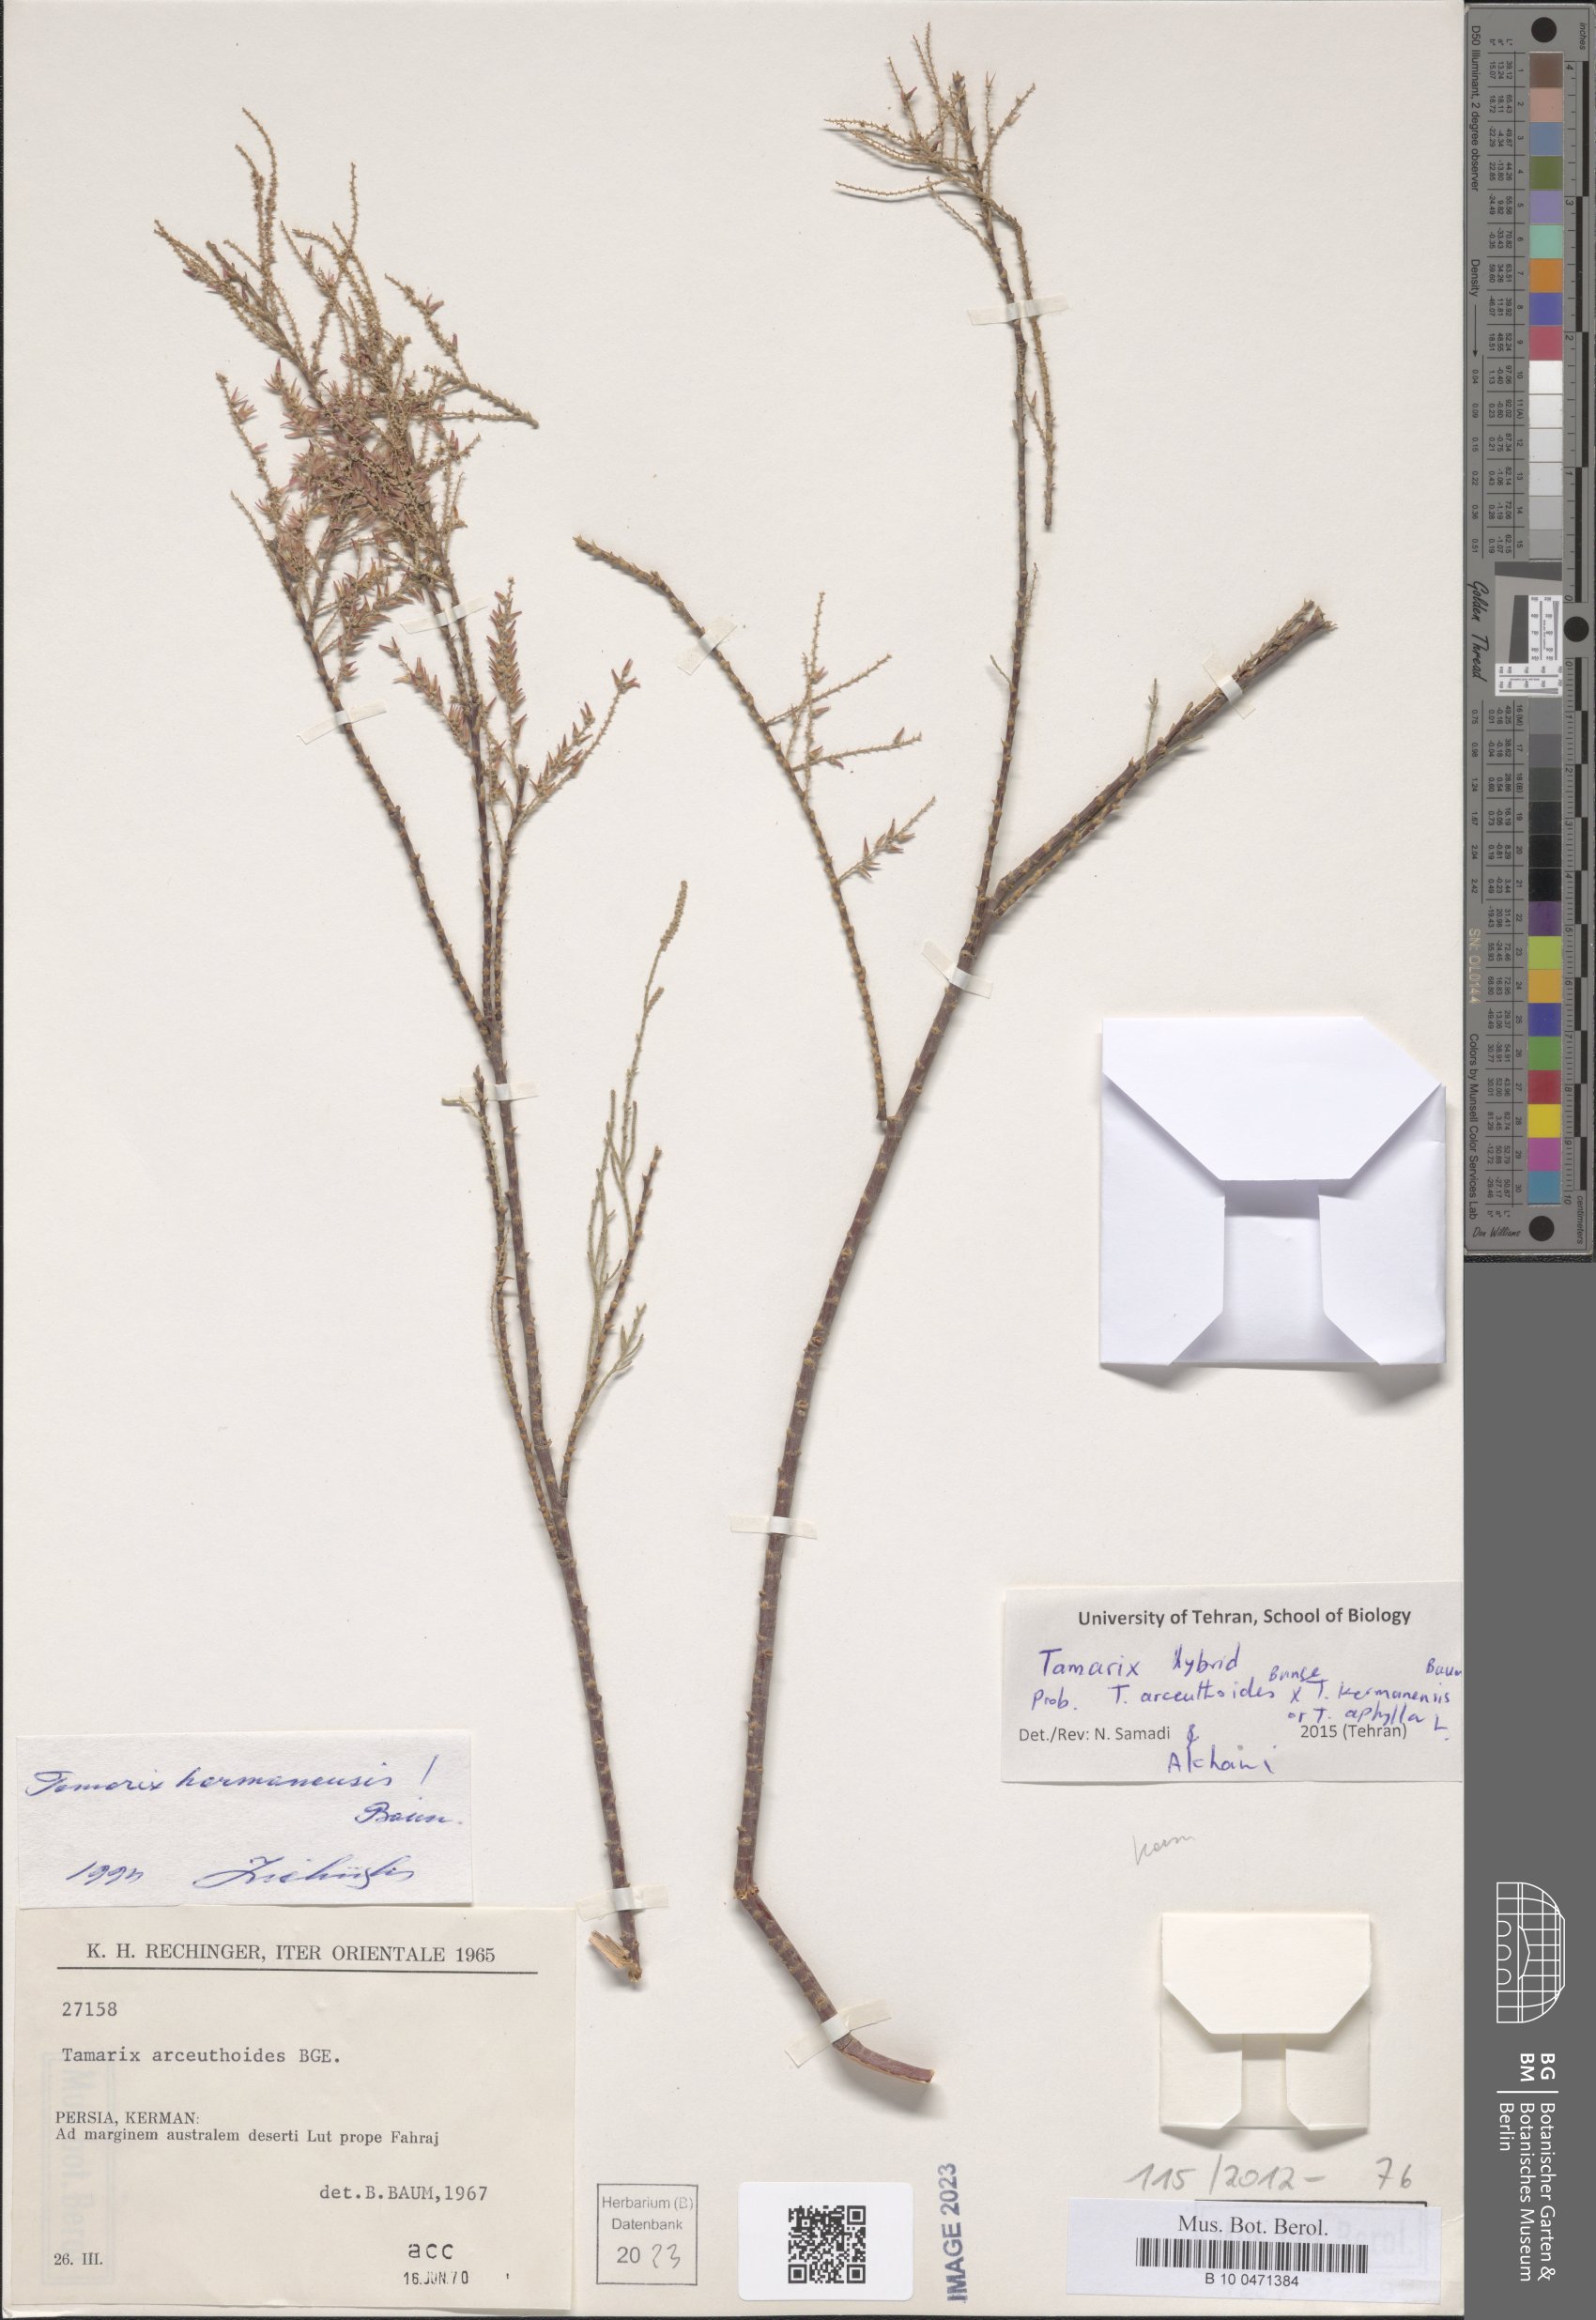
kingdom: Plantae
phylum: Tracheophyta
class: Magnoliopsida
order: Caryophyllales
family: Tamaricaceae
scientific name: Tamaricaceae
